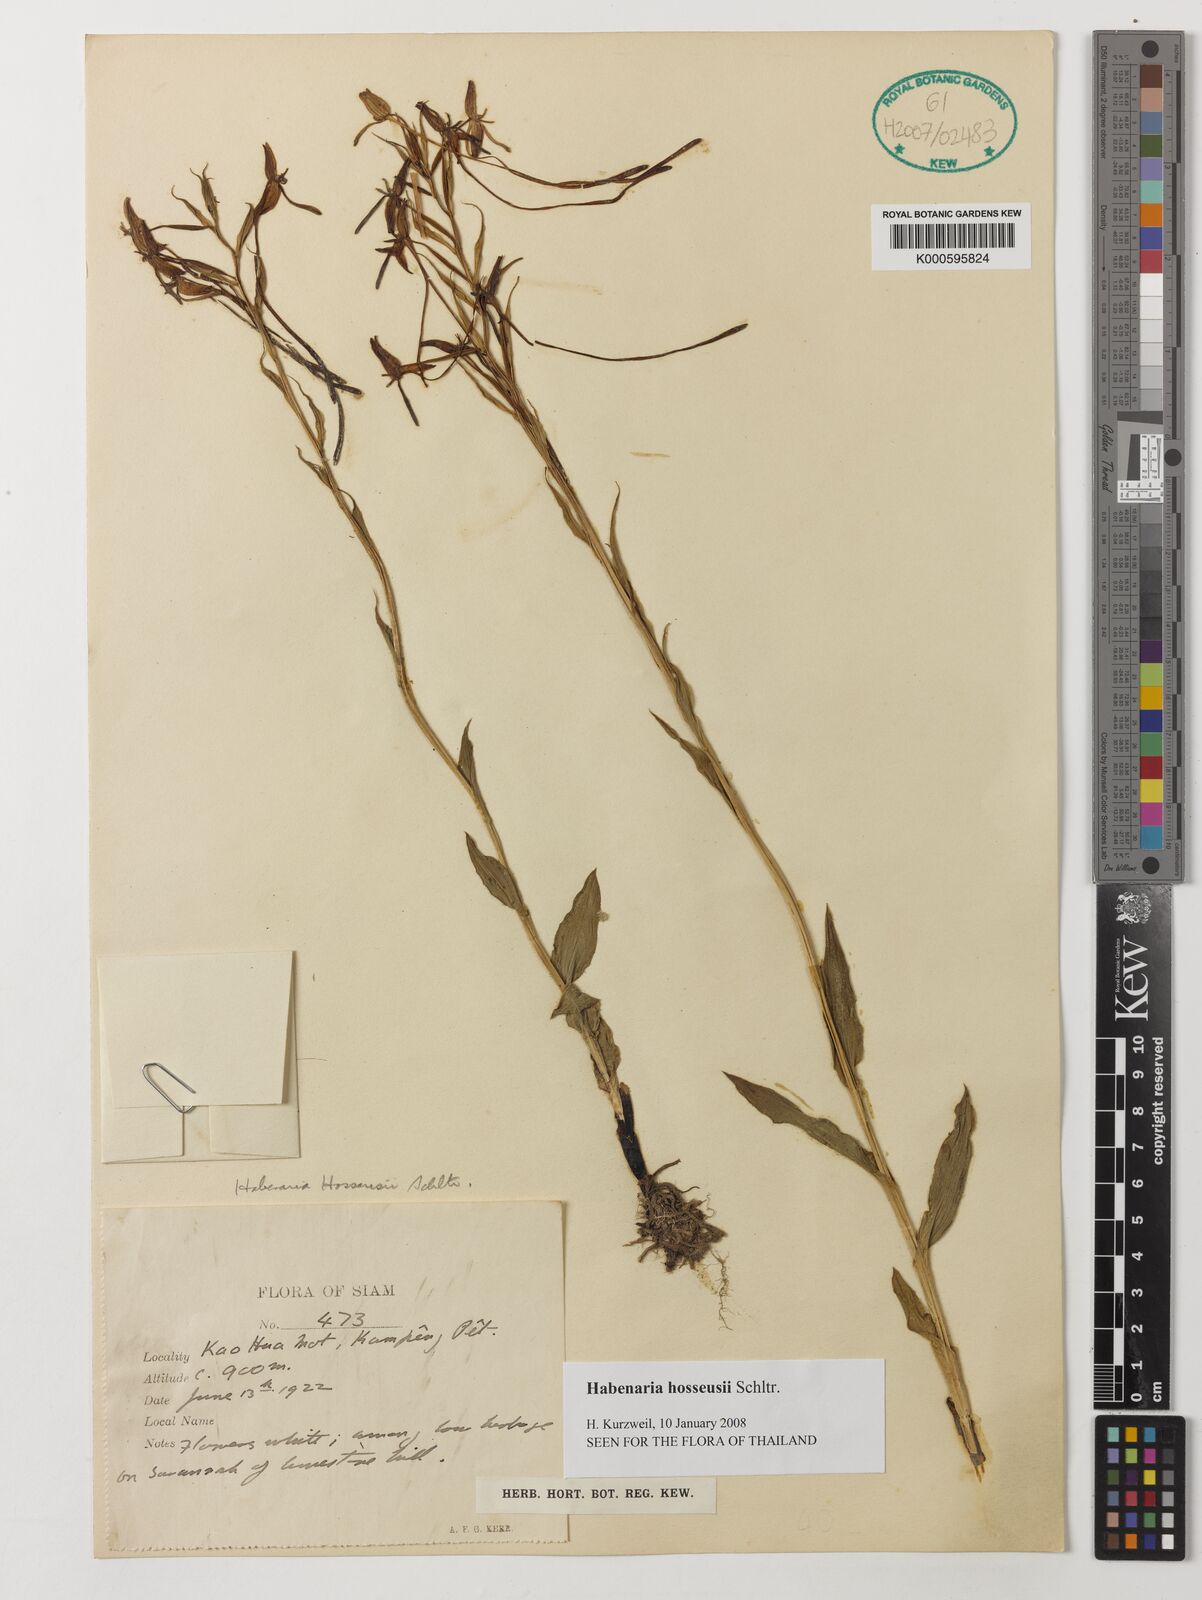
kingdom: Plantae
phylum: Tracheophyta
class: Liliopsida
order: Asparagales
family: Orchidaceae
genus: Habenaria
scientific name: Habenaria hosseusii
